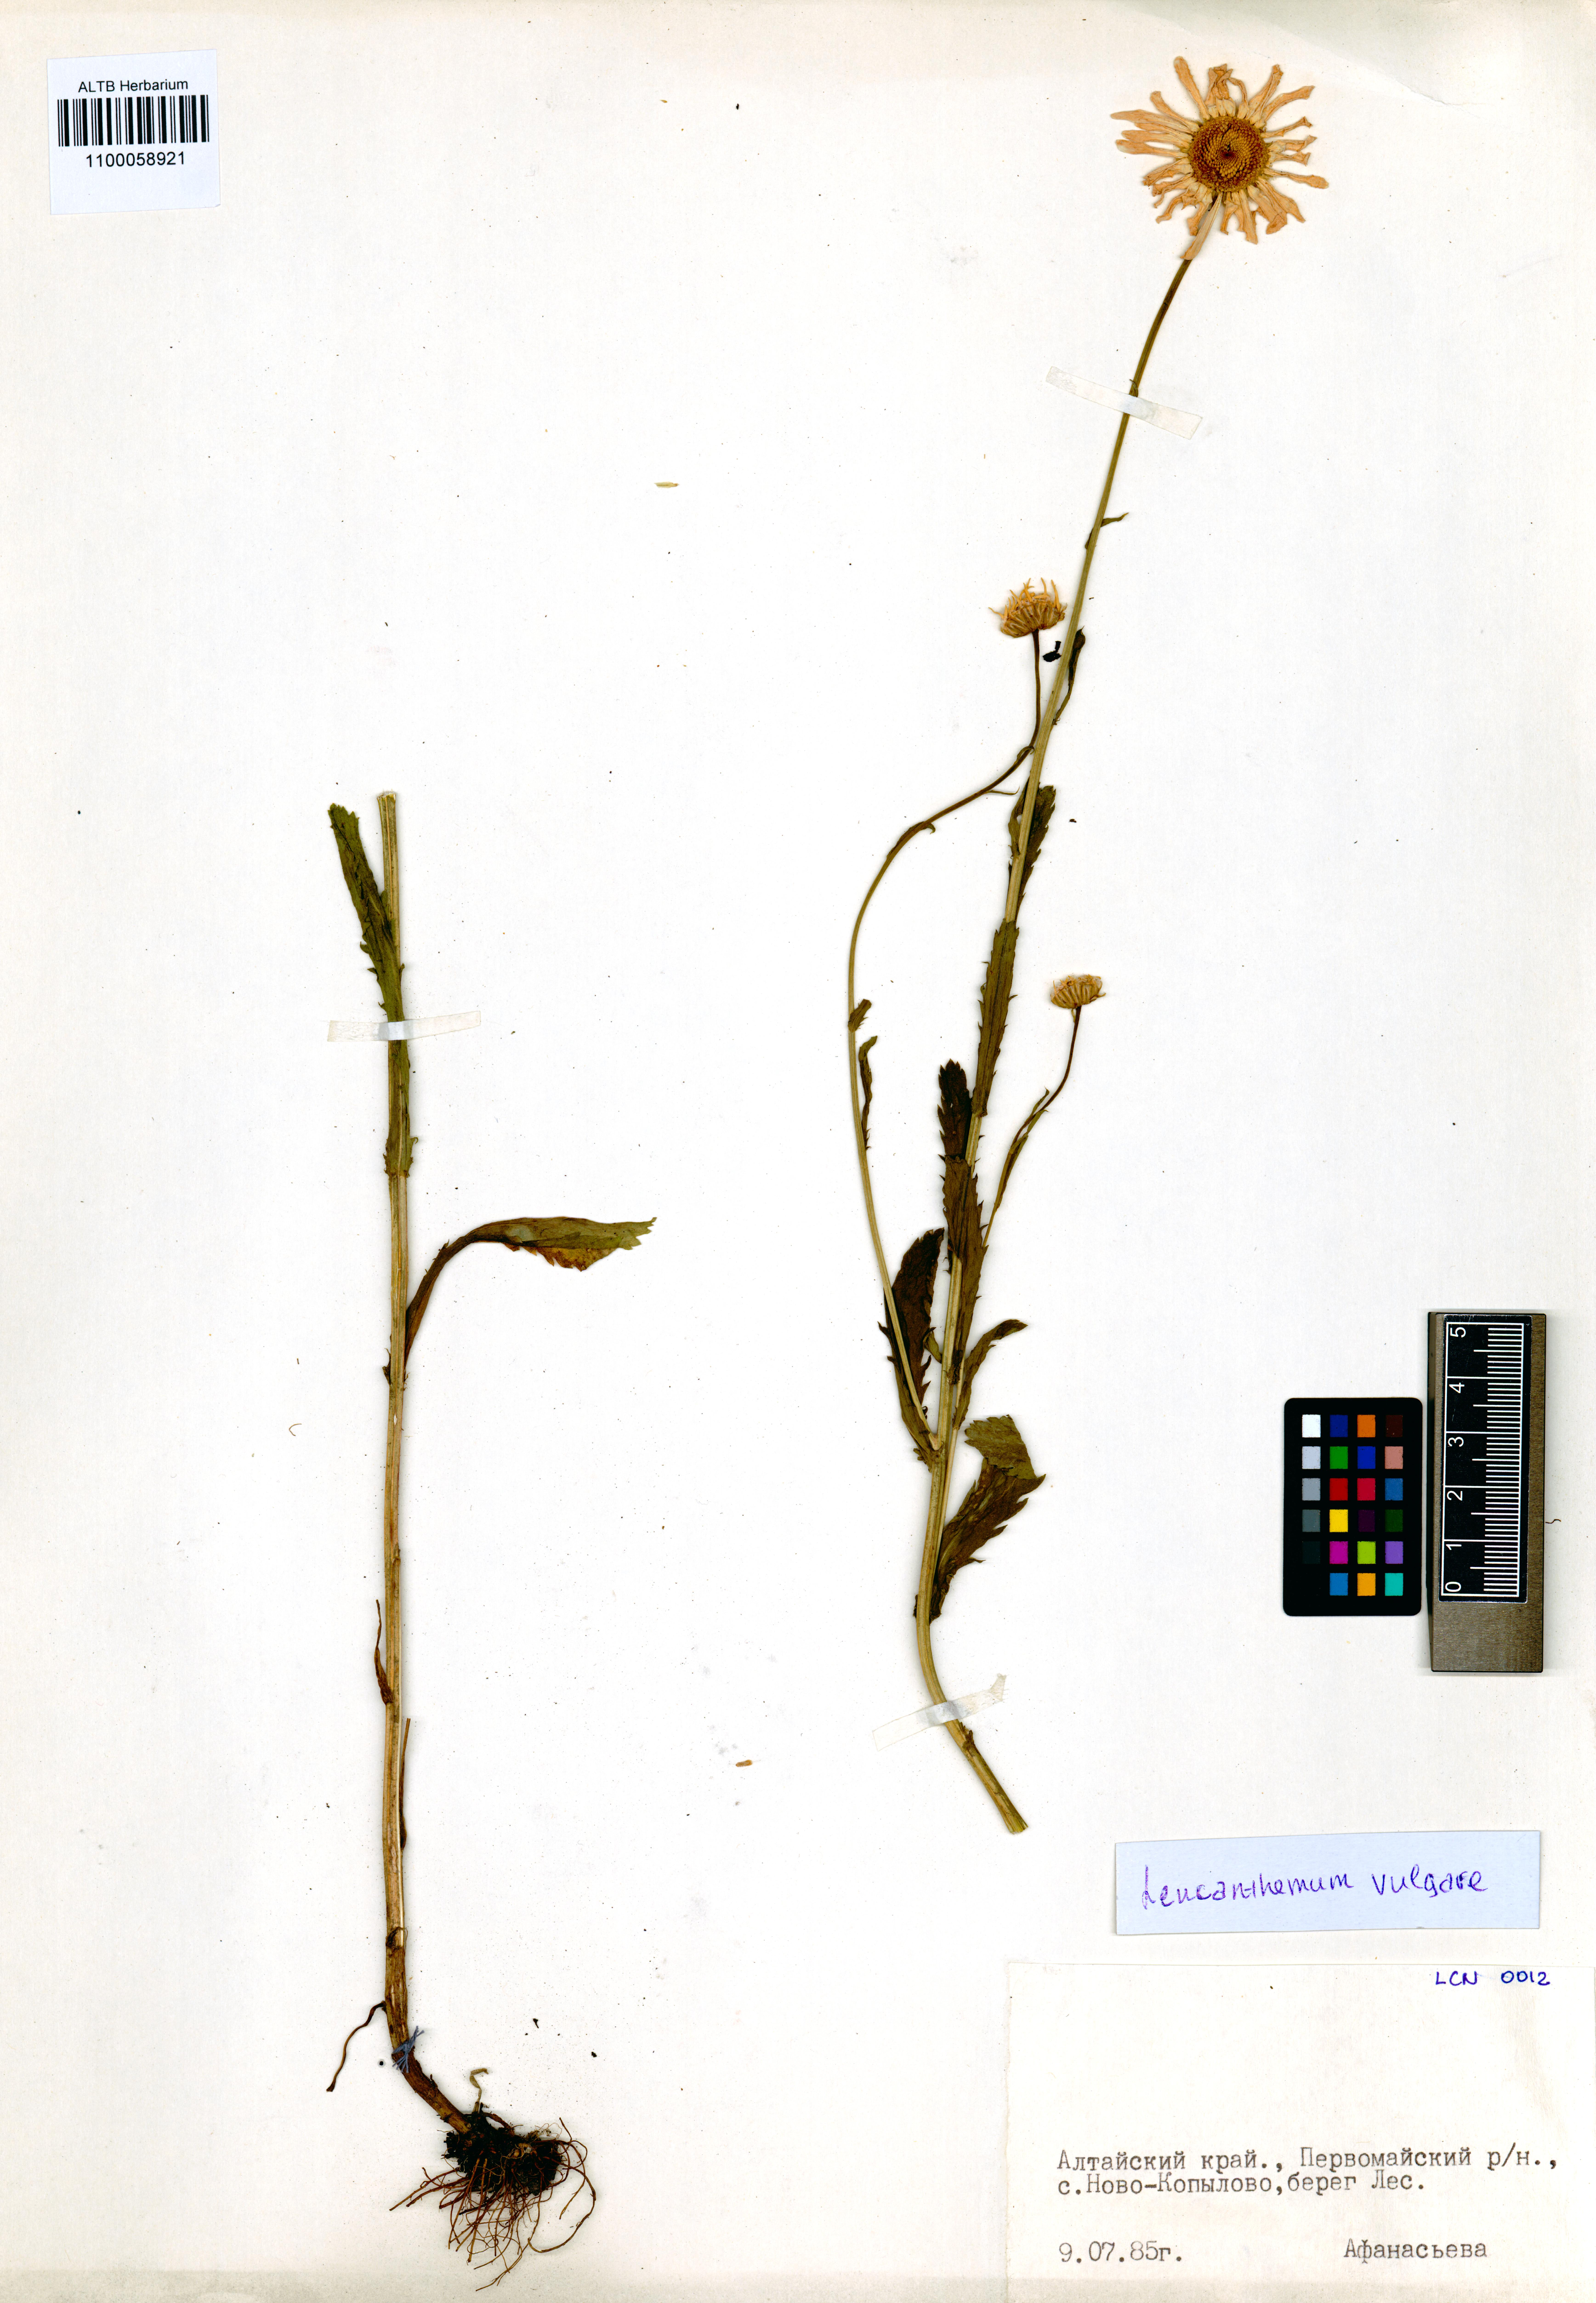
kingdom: Plantae
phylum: Tracheophyta
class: Magnoliopsida
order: Asterales
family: Asteraceae
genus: Leucanthemum
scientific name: Leucanthemum vulgare
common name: Oxeye daisy
